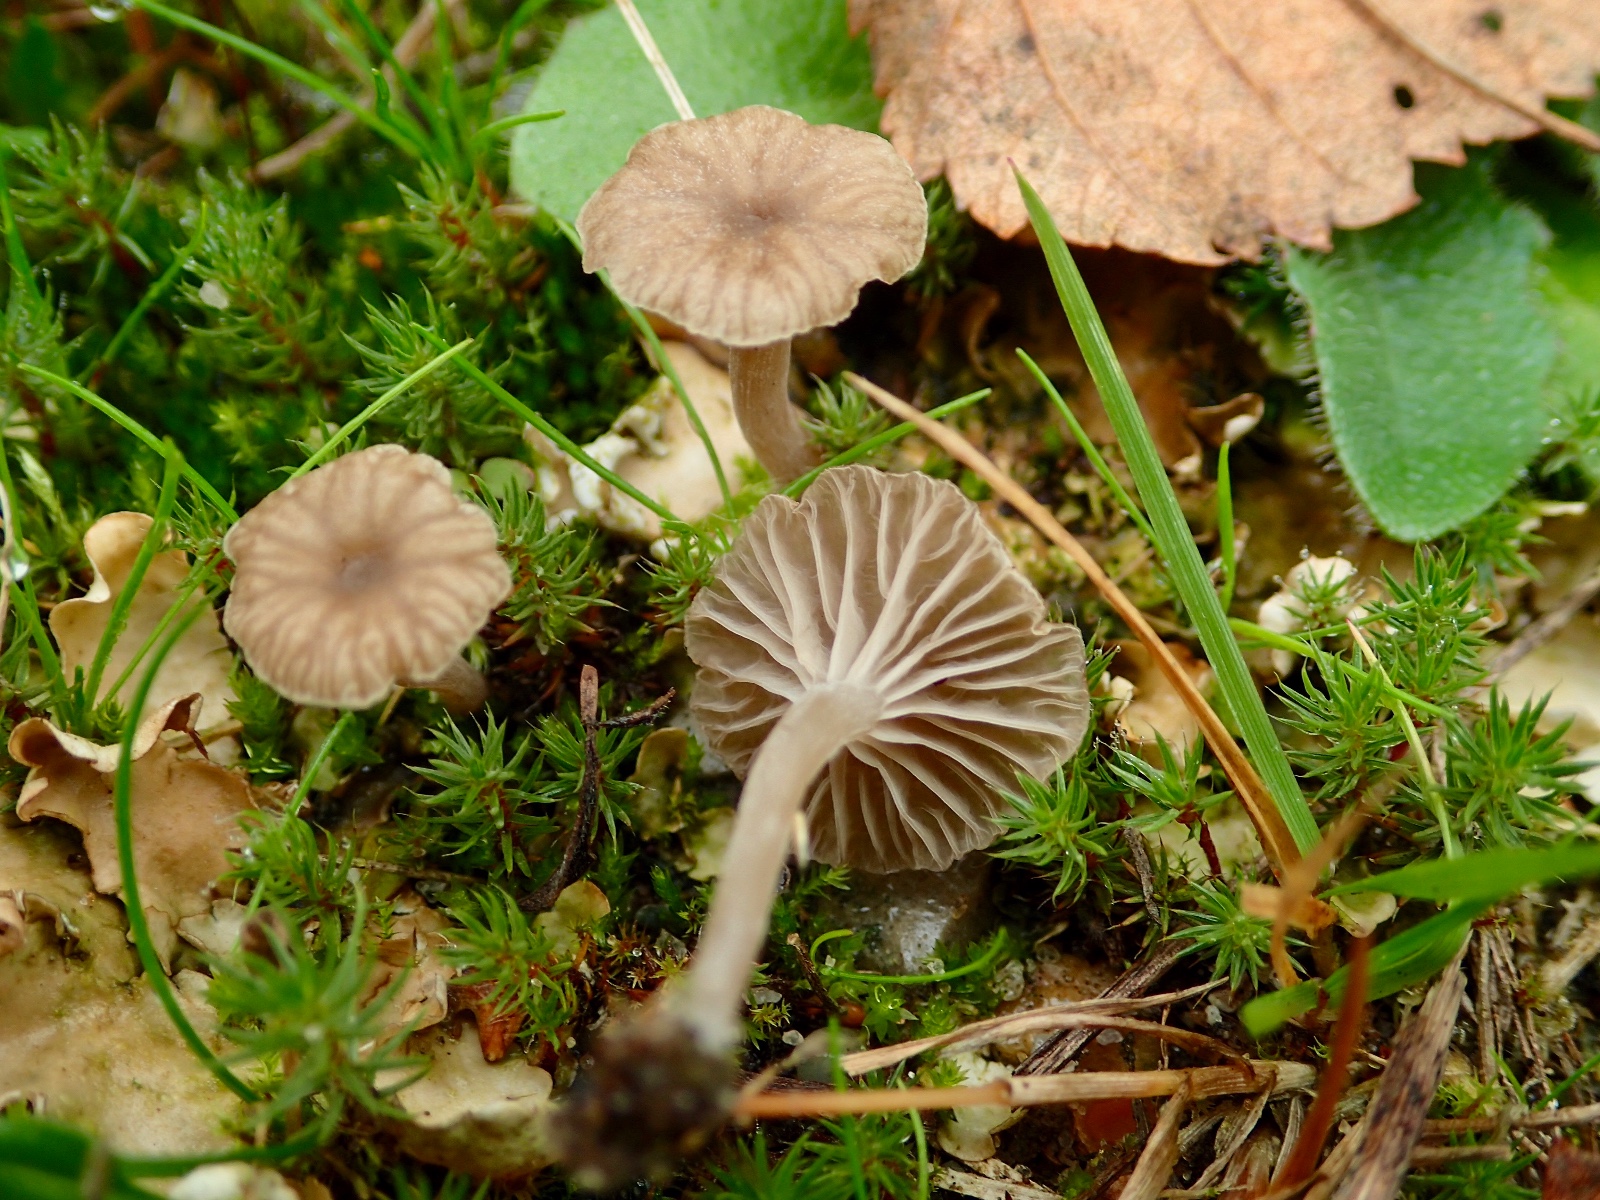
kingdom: Fungi
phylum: Basidiomycota
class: Agaricomycetes
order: Agaricales
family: Hygrophoraceae
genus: Arrhenia
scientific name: Arrhenia peltigerina
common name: skjoldlav-fontænehat
